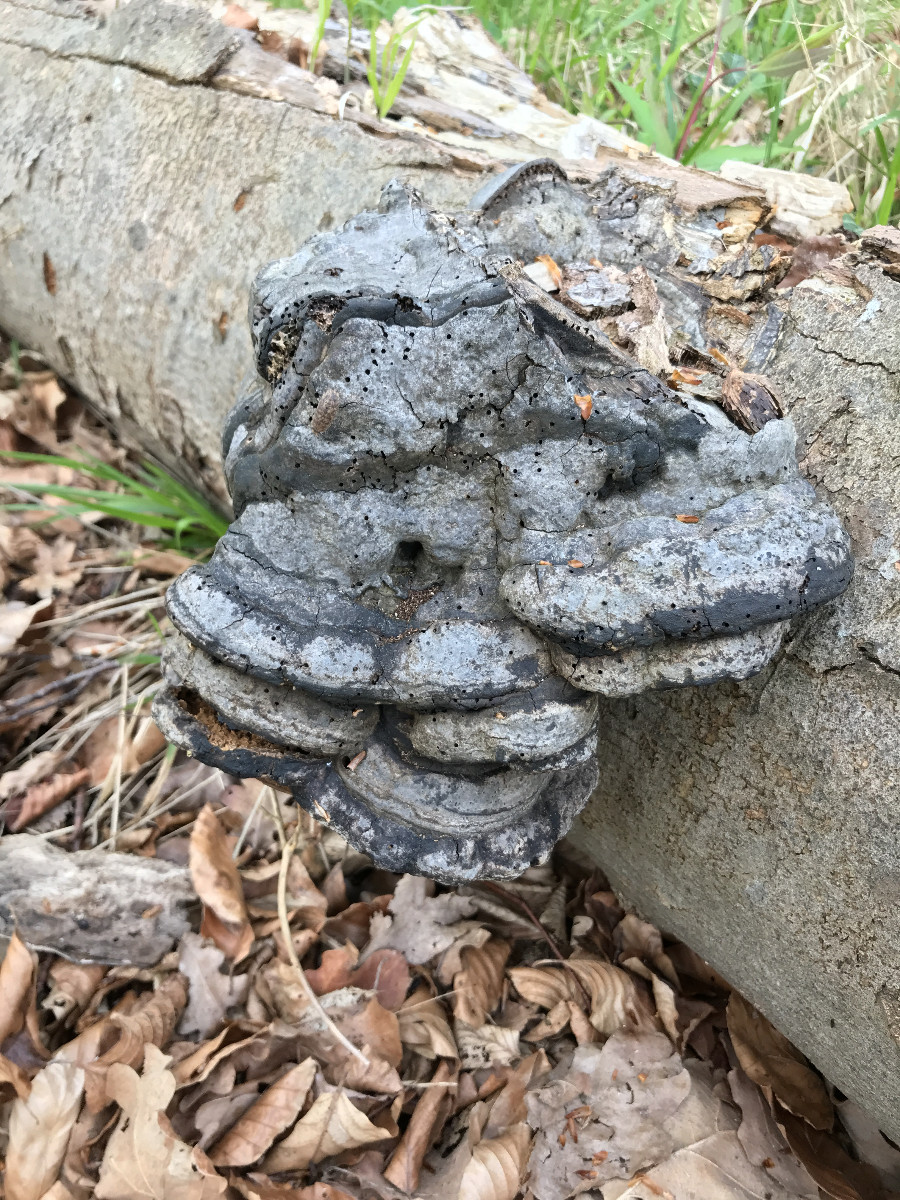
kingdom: Fungi
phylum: Basidiomycota
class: Agaricomycetes
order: Polyporales
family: Polyporaceae
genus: Fomes
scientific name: Fomes fomentarius
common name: tøndersvamp
